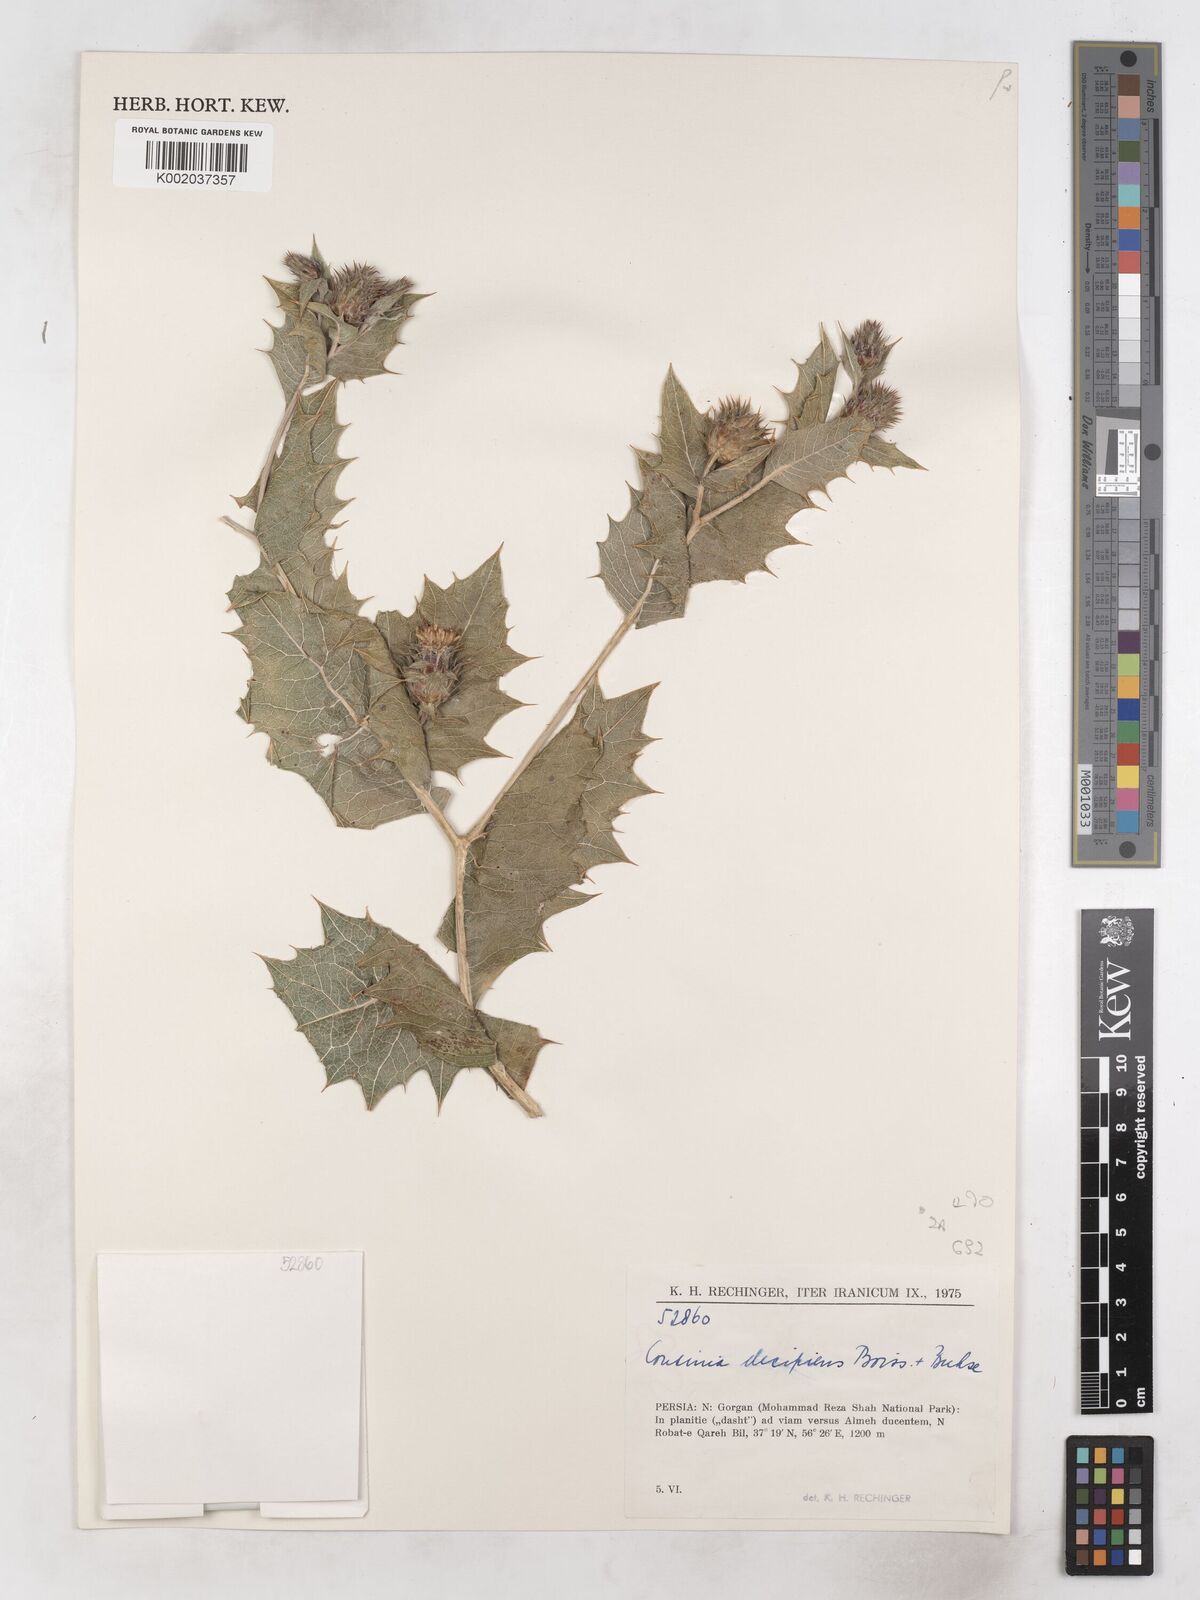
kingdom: Plantae
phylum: Tracheophyta
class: Magnoliopsida
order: Asterales
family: Asteraceae
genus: Cousinia
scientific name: Cousinia decipiens
